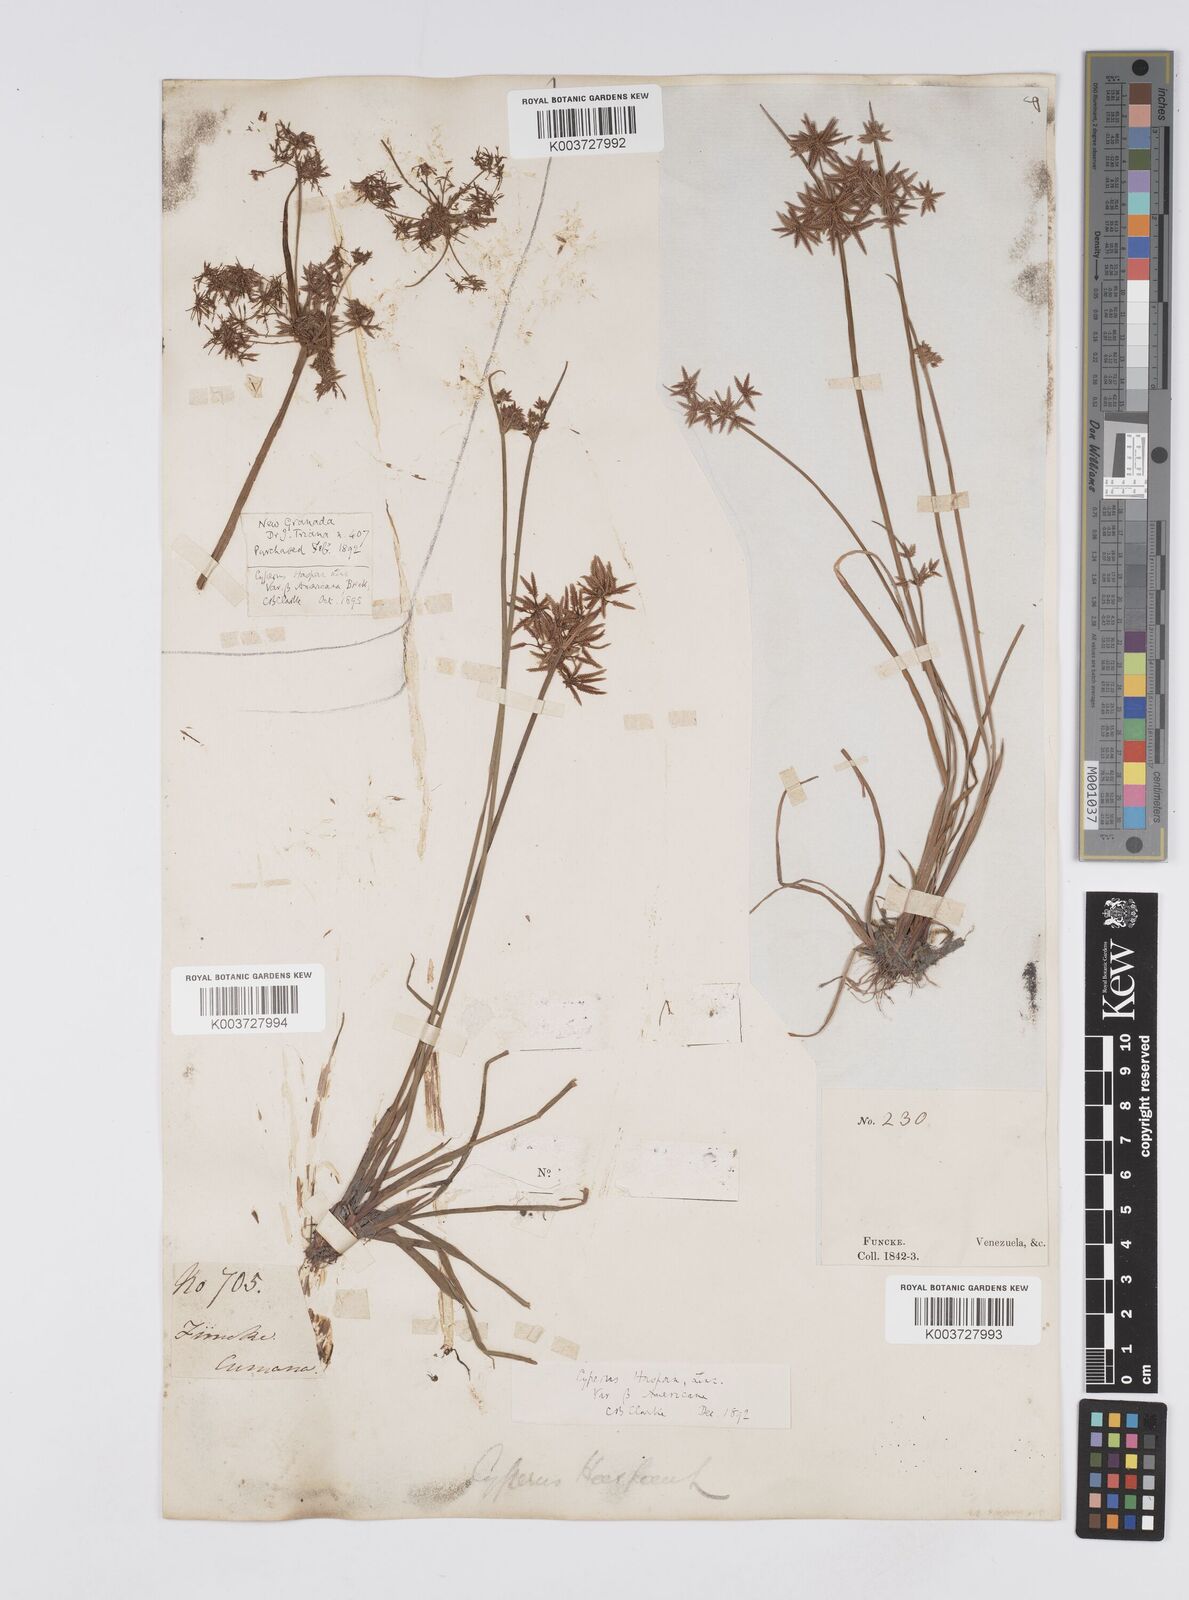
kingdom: Plantae
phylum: Tracheophyta
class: Liliopsida
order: Poales
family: Cyperaceae
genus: Cyperus
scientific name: Cyperus haspan
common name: Haspan flatsedge
